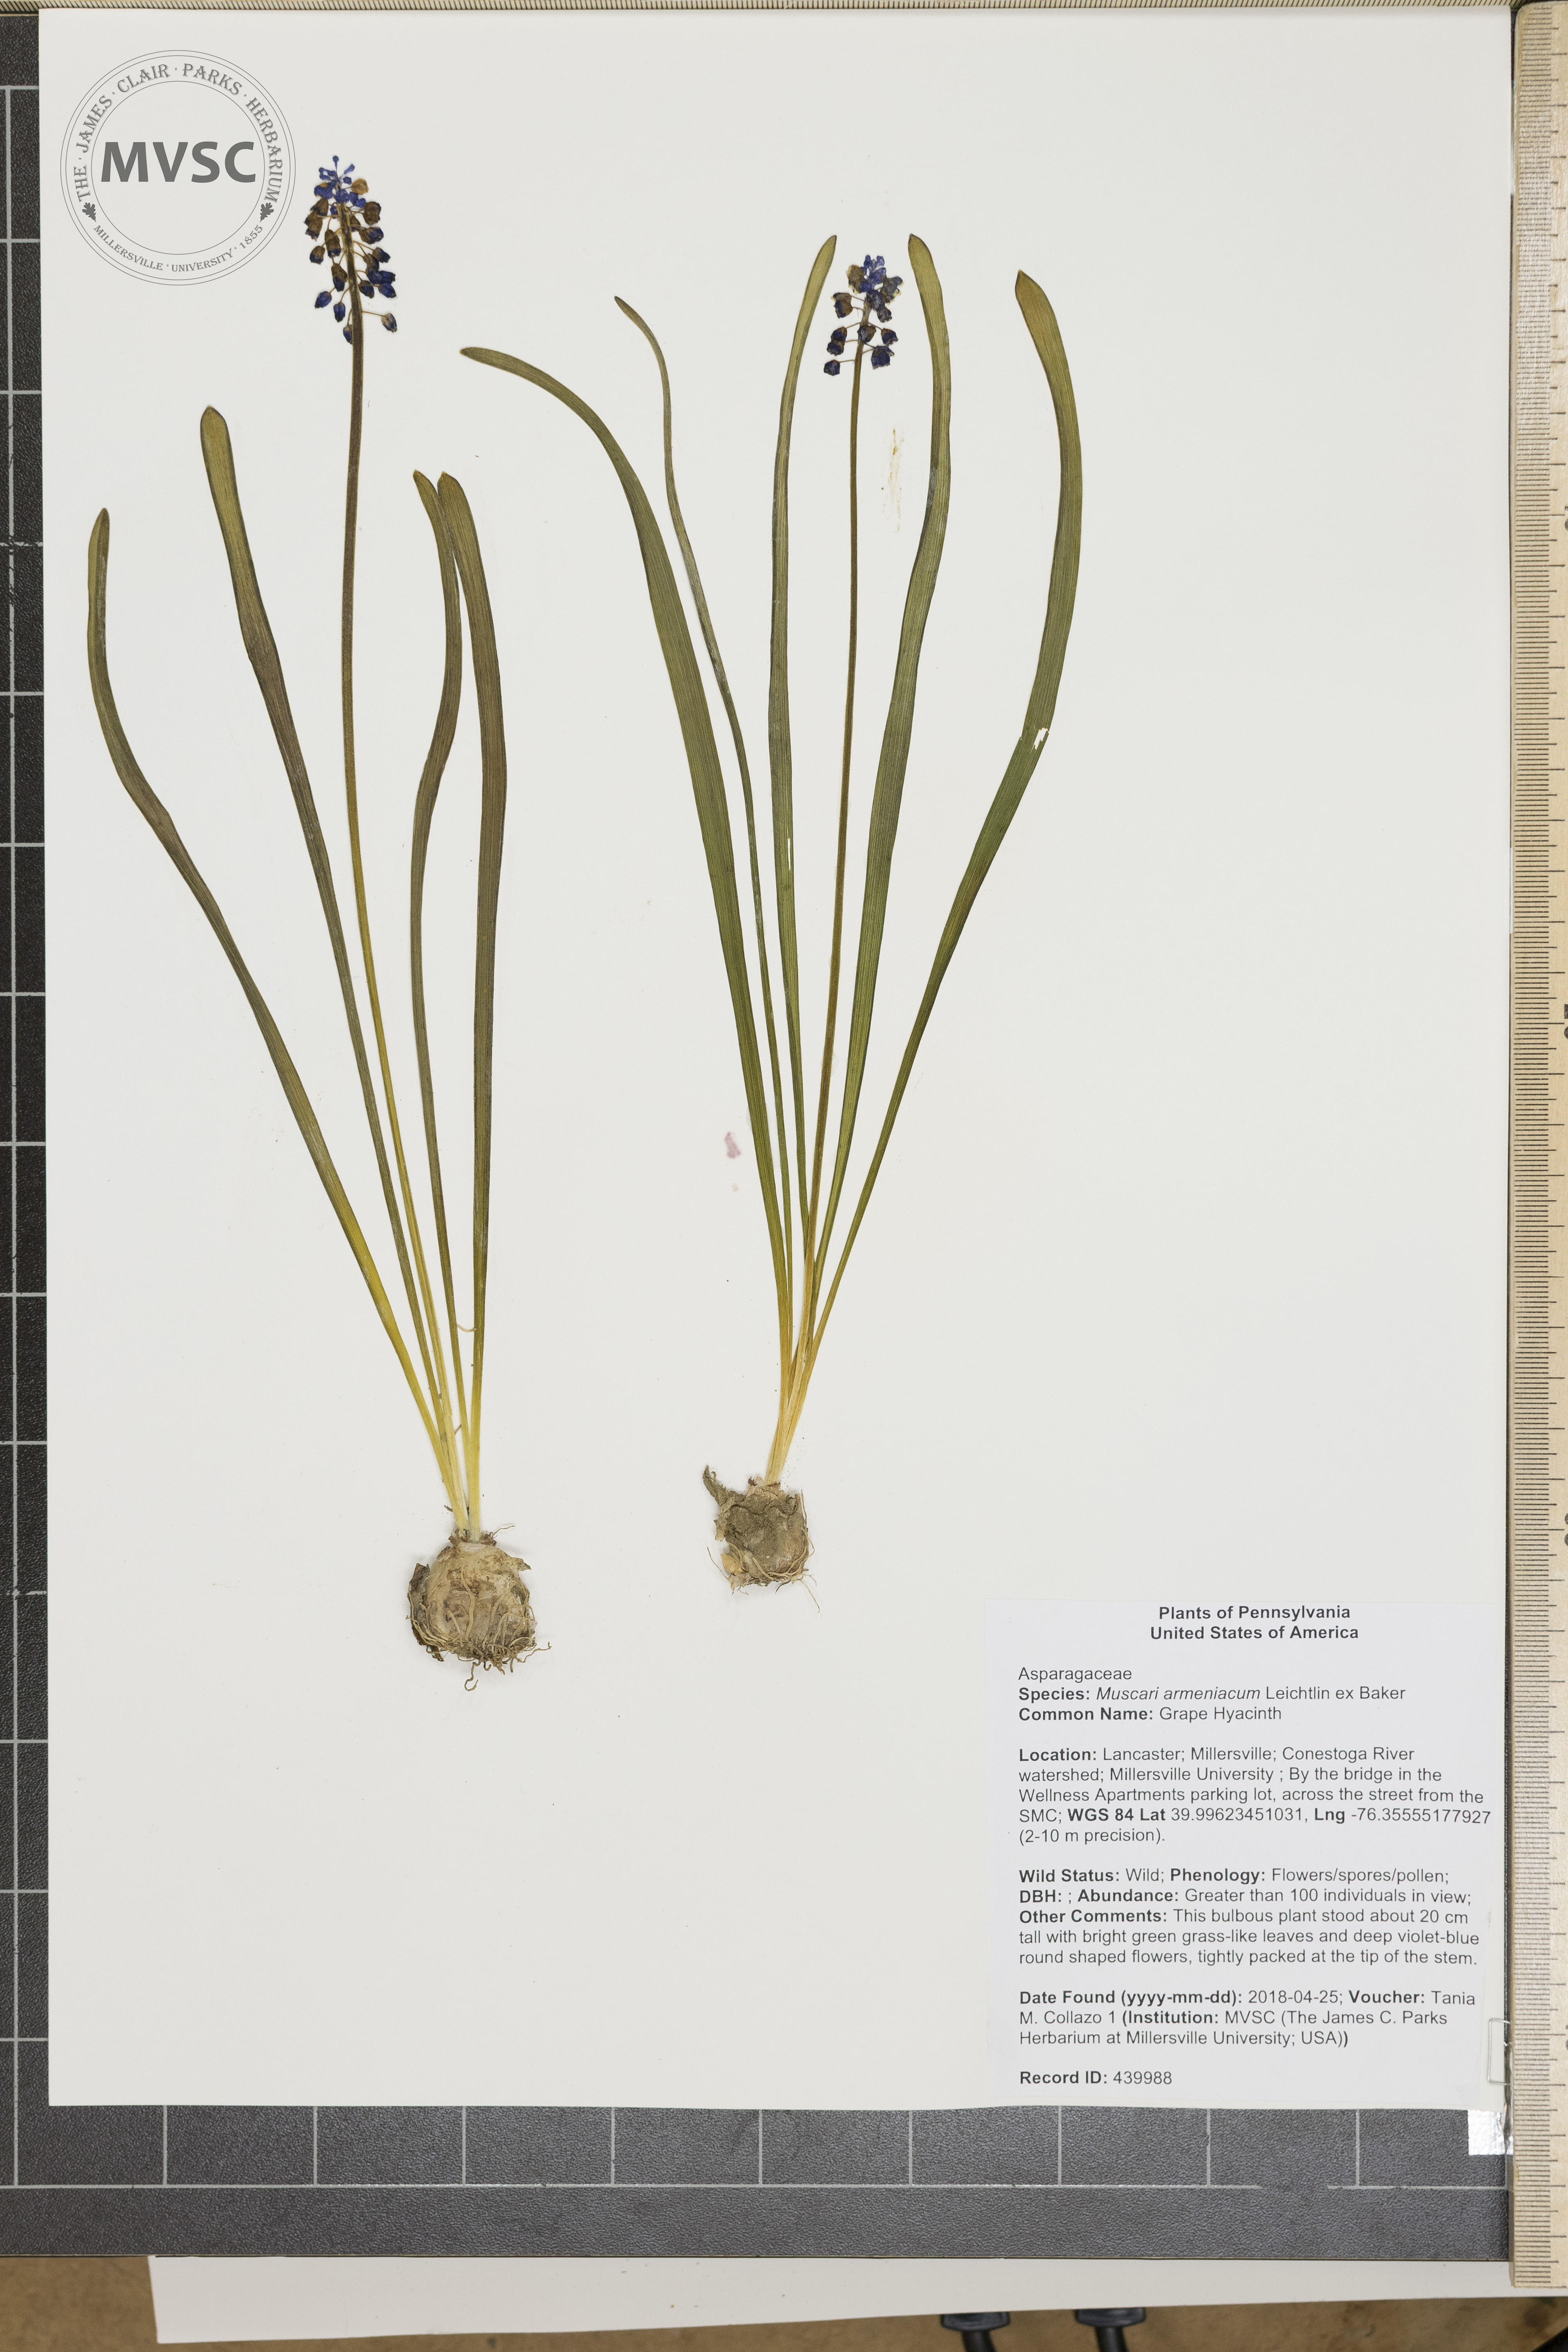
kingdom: Plantae
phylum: Tracheophyta
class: Liliopsida
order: Asparagales
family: Asparagaceae
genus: Muscari
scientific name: Muscari neglectum
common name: Grape Hyacinth
